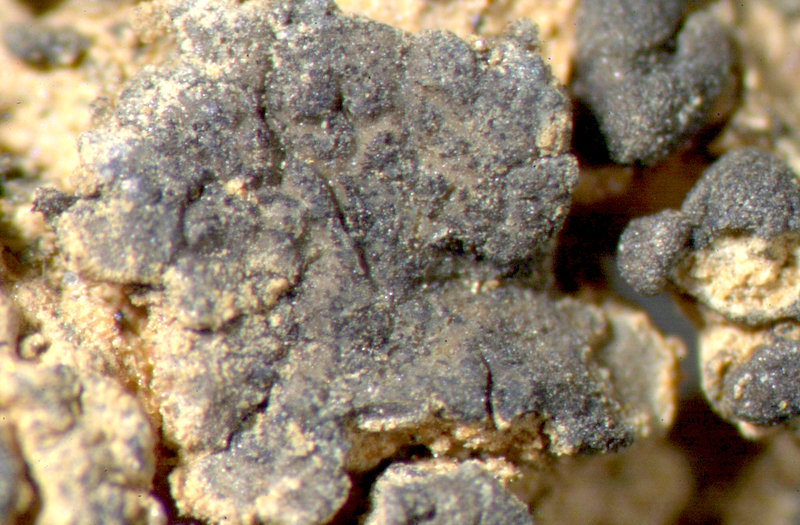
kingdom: Fungi
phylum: Ascomycota
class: Lichinomycetes
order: Lichinales
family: Lichinaceae
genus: Lichinella
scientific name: Lichinella stipatula
